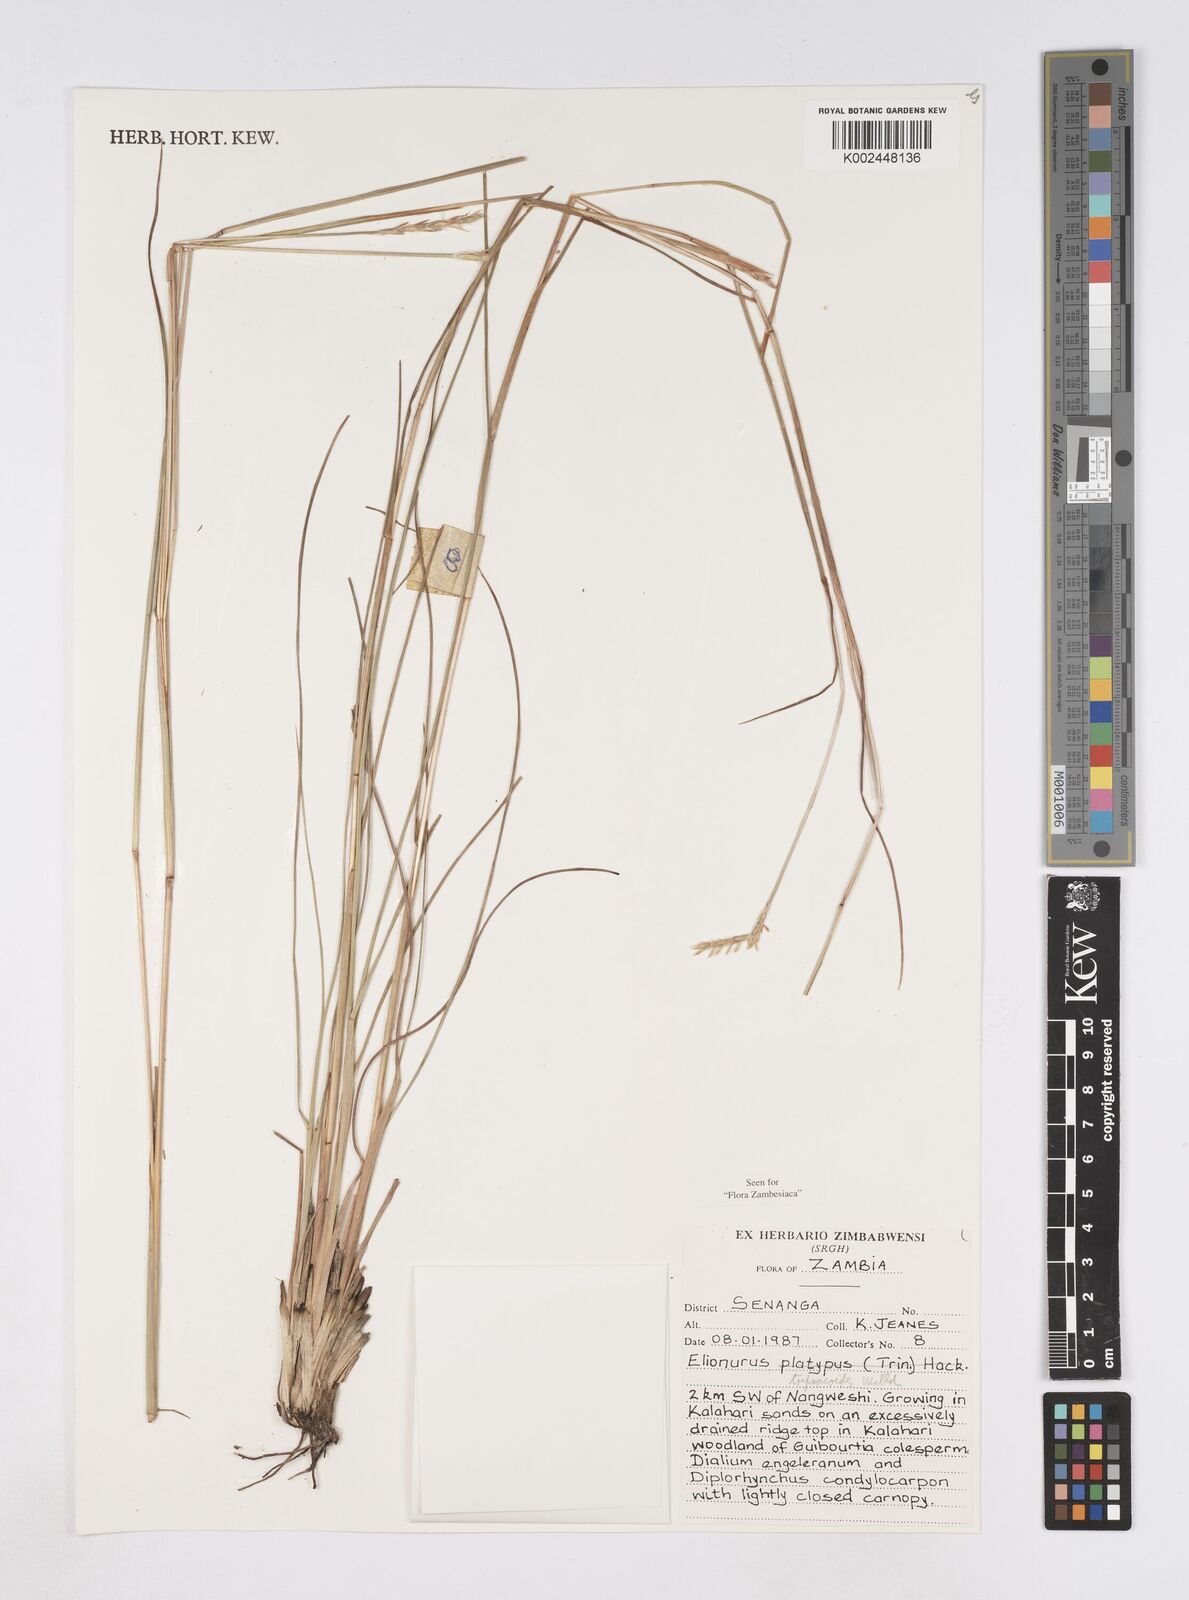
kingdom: Plantae
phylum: Tracheophyta
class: Liliopsida
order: Poales
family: Poaceae
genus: Elionurus
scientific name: Elionurus tripsacoides
